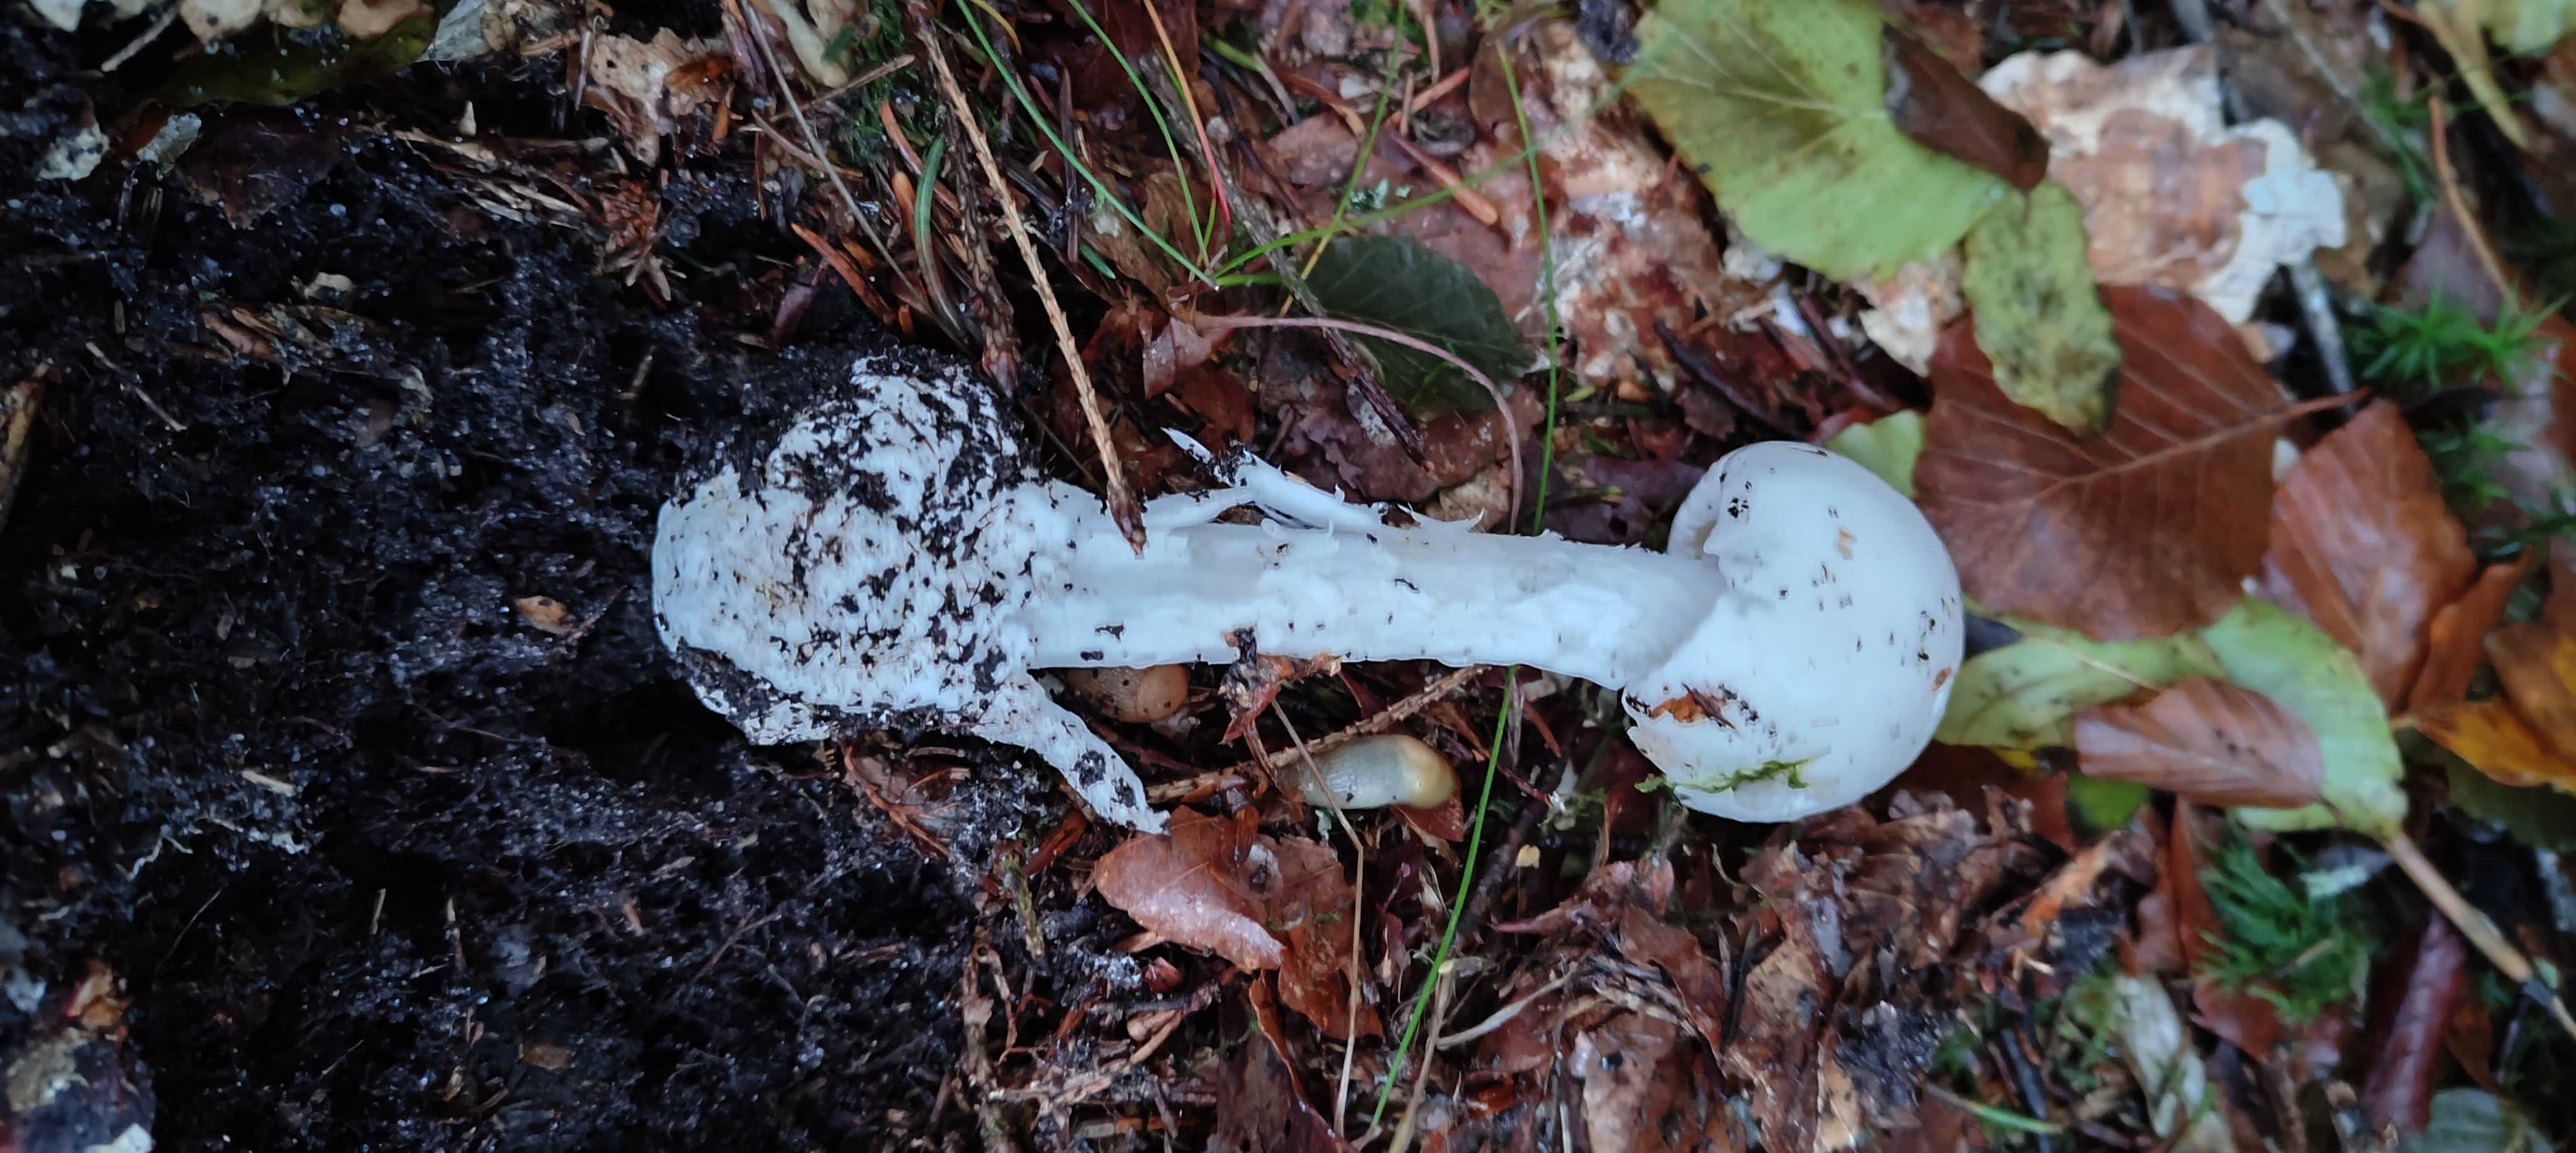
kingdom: Fungi
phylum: Basidiomycota
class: Agaricomycetes
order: Agaricales
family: Amanitaceae
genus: Amanita
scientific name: Amanita virosa
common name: snehvid fluesvamp
